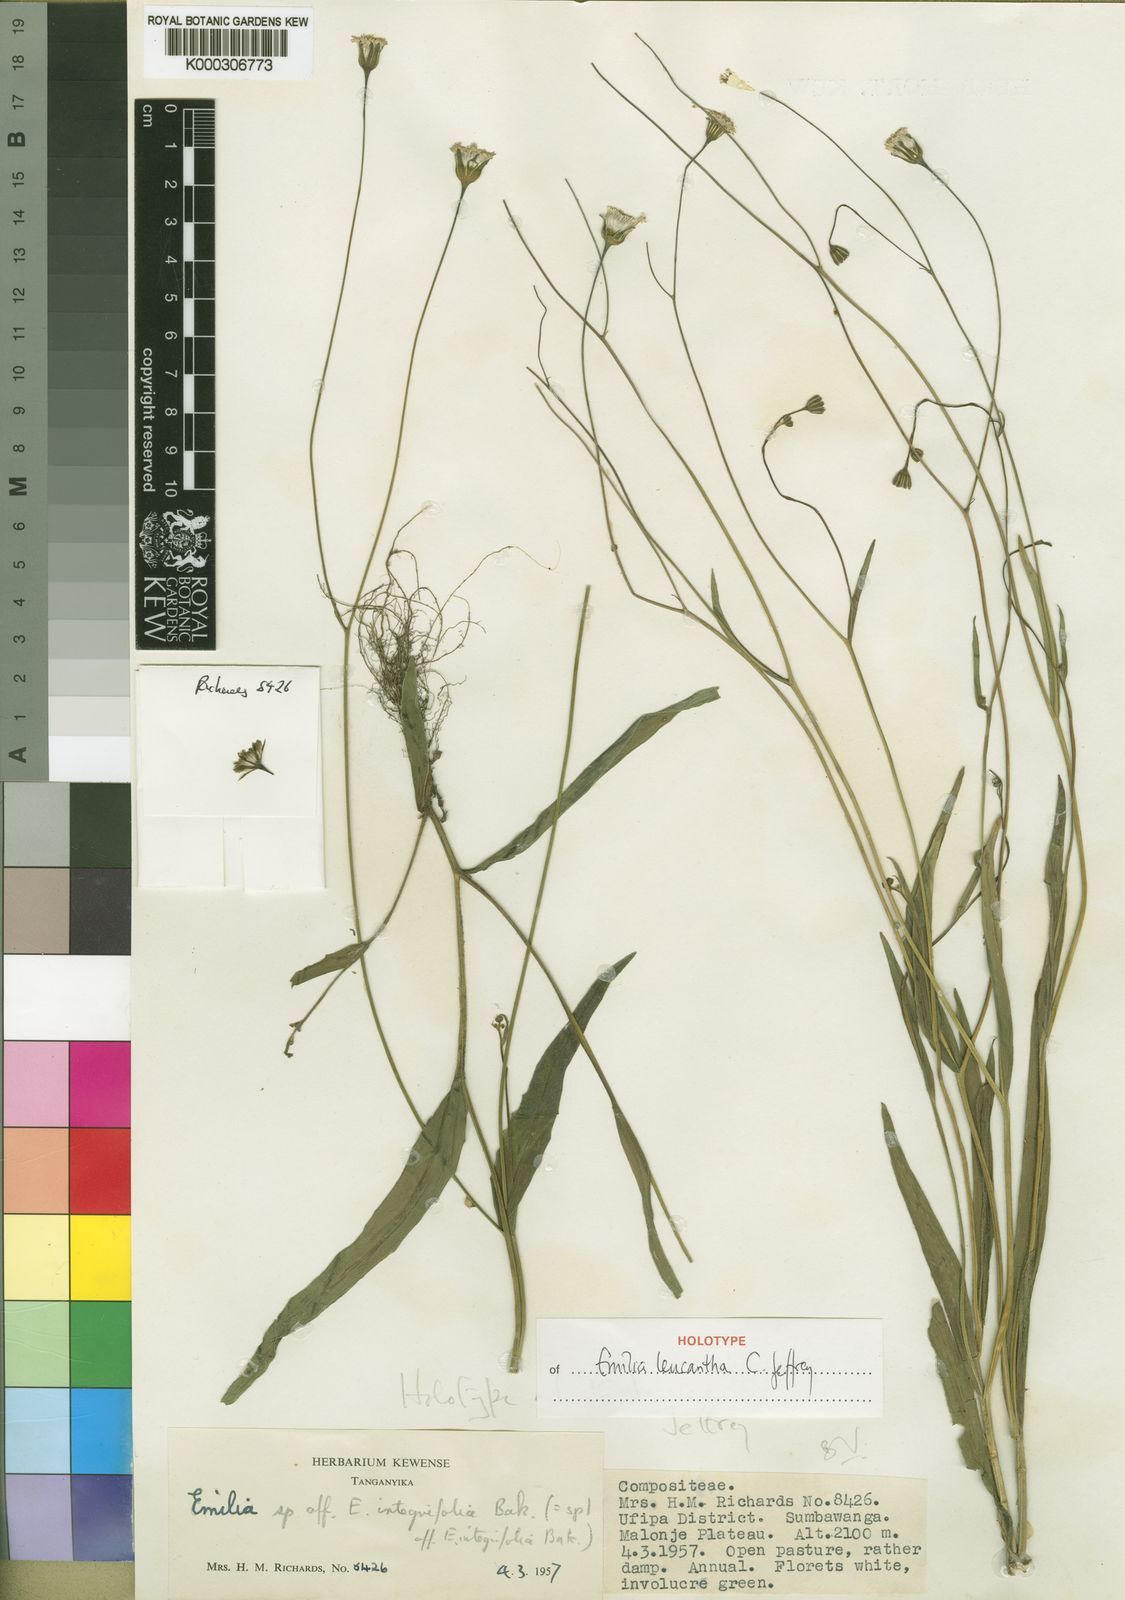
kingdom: Plantae
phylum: Tracheophyta
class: Magnoliopsida
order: Asterales
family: Asteraceae
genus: Emilia
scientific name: Emilia leucantha
